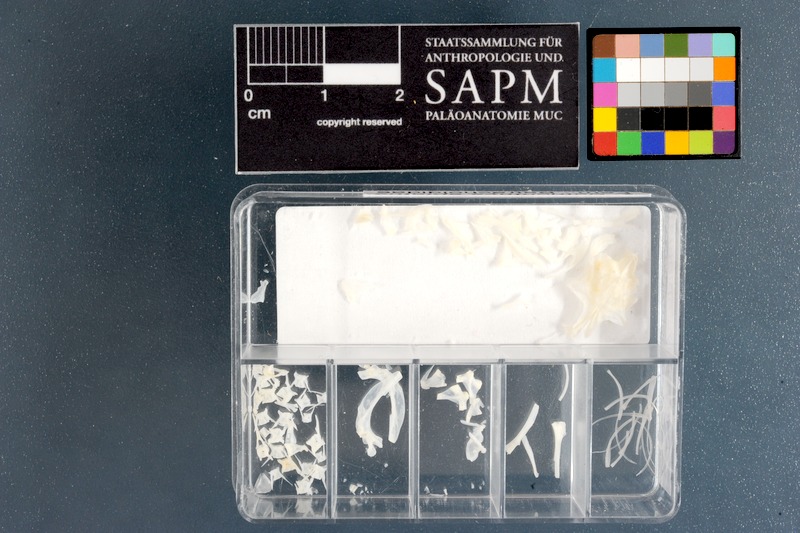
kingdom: Animalia
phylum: Chordata
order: Batrachoidiformes
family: Batrachoididae
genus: Batrichthys
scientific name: Batrichthys apiatus
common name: Snakehead toadfish
